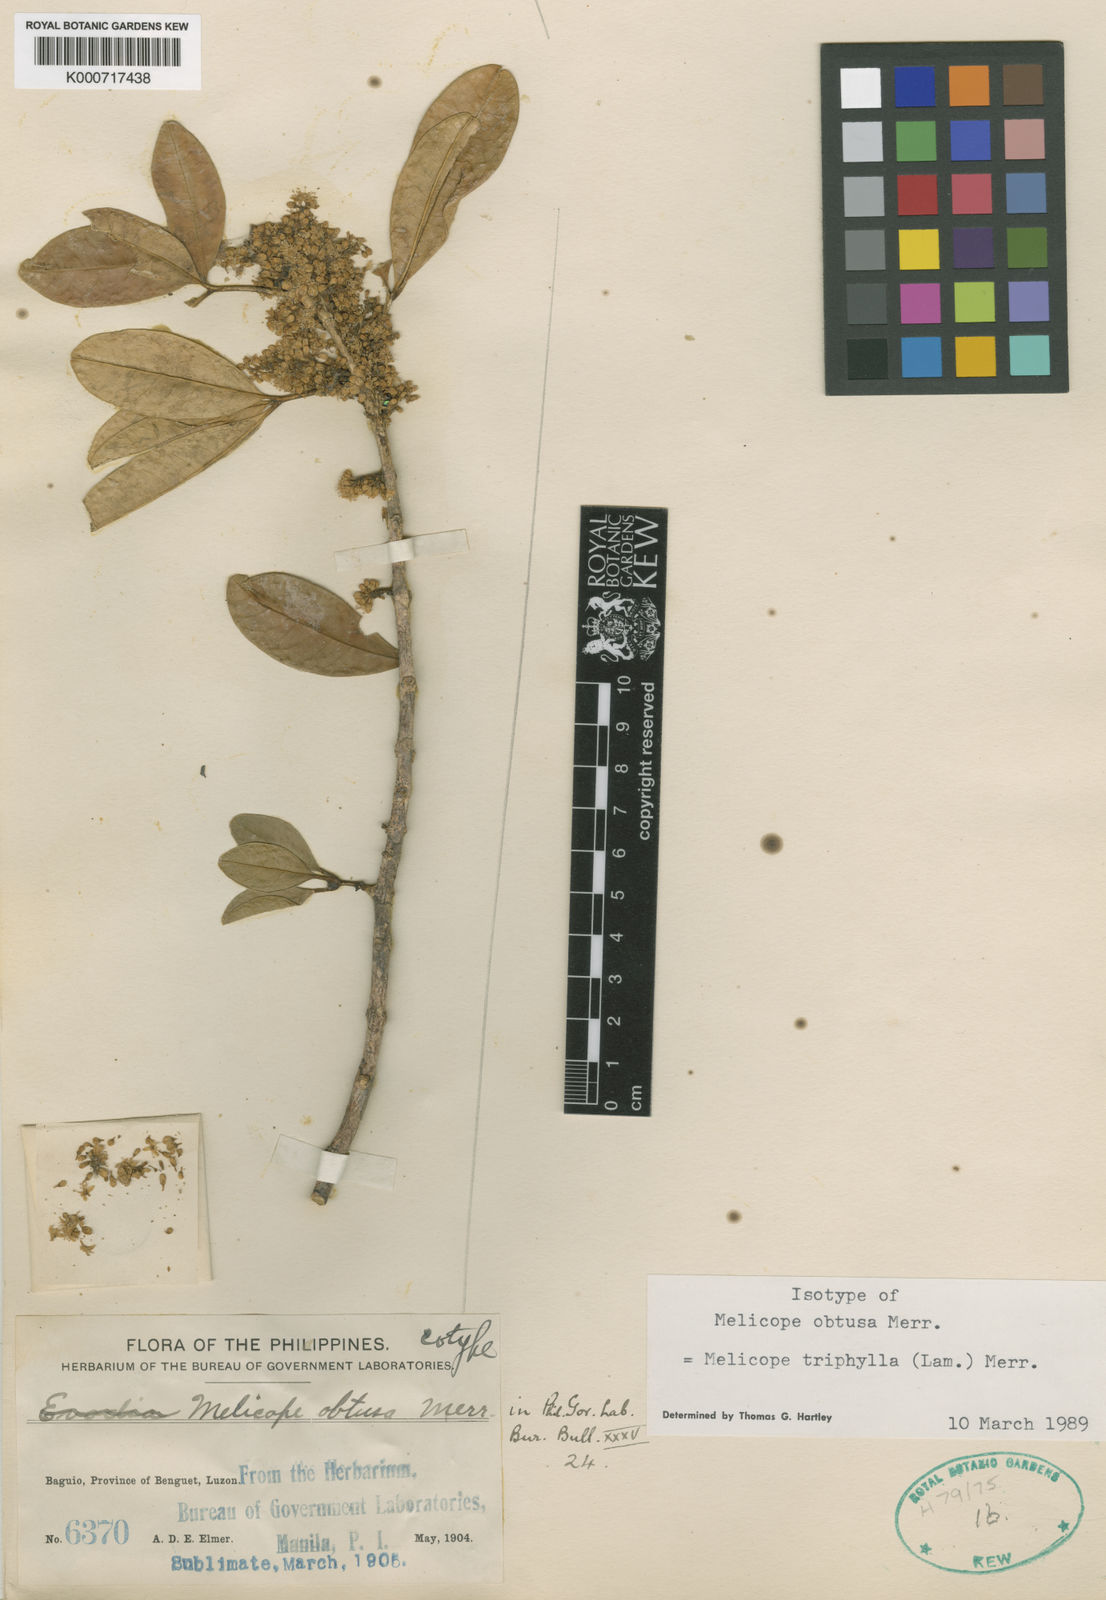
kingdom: Plantae
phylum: Tracheophyta
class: Magnoliopsida
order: Sapindales
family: Rutaceae
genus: Melicope
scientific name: Melicope triphylla
